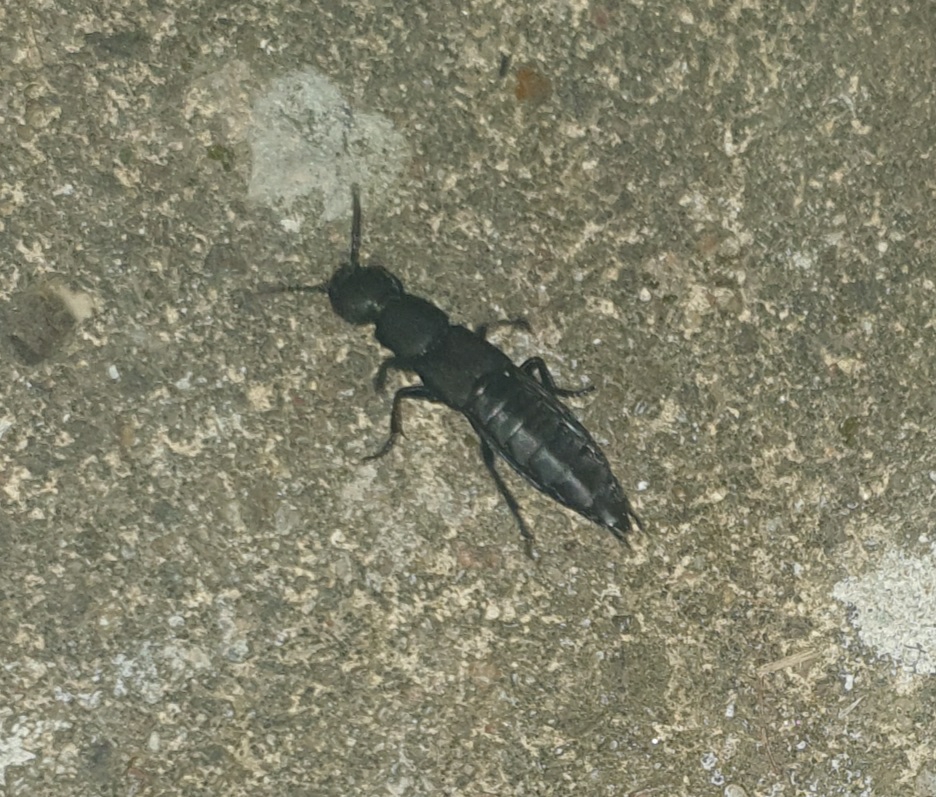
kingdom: Animalia
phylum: Arthropoda
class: Insecta
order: Coleoptera
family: Staphylinidae
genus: Ocypus
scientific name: Ocypus olens
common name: Stor rovbille
